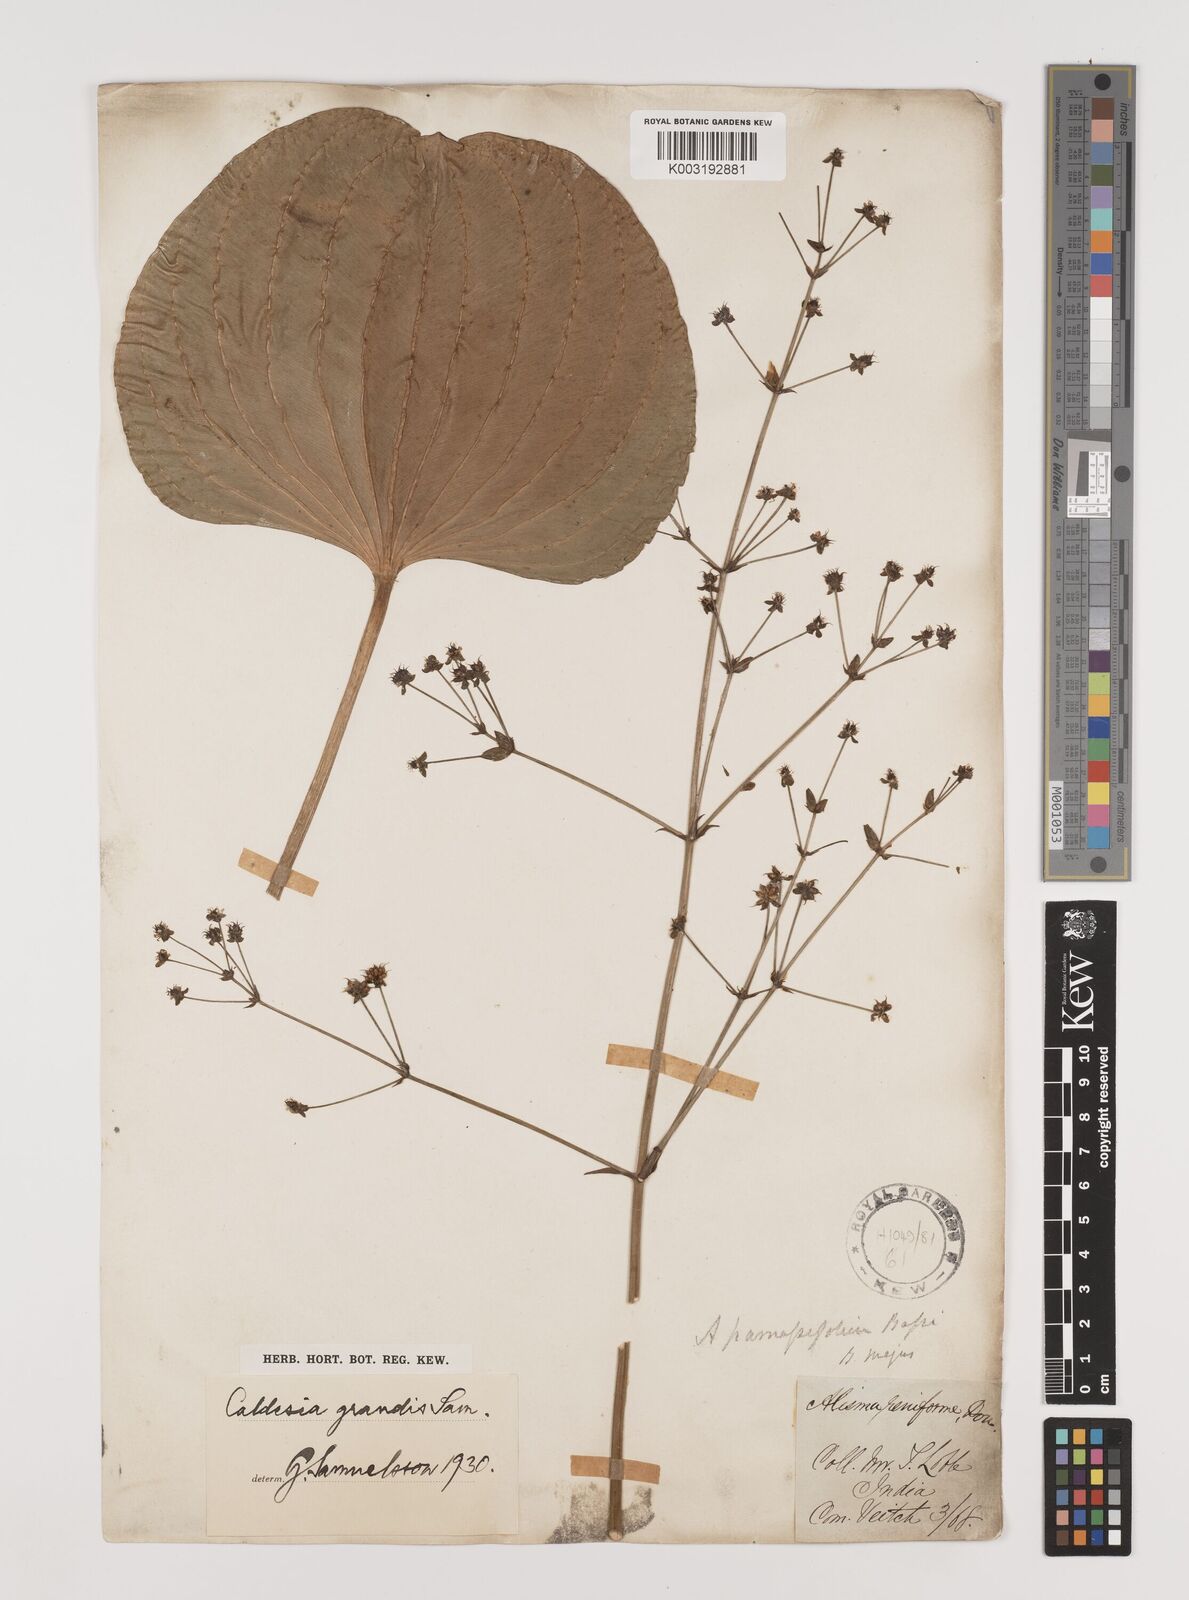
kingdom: Plantae
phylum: Tracheophyta
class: Liliopsida
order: Alismatales
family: Alismataceae
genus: Caldesia
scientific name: Caldesia grandis
